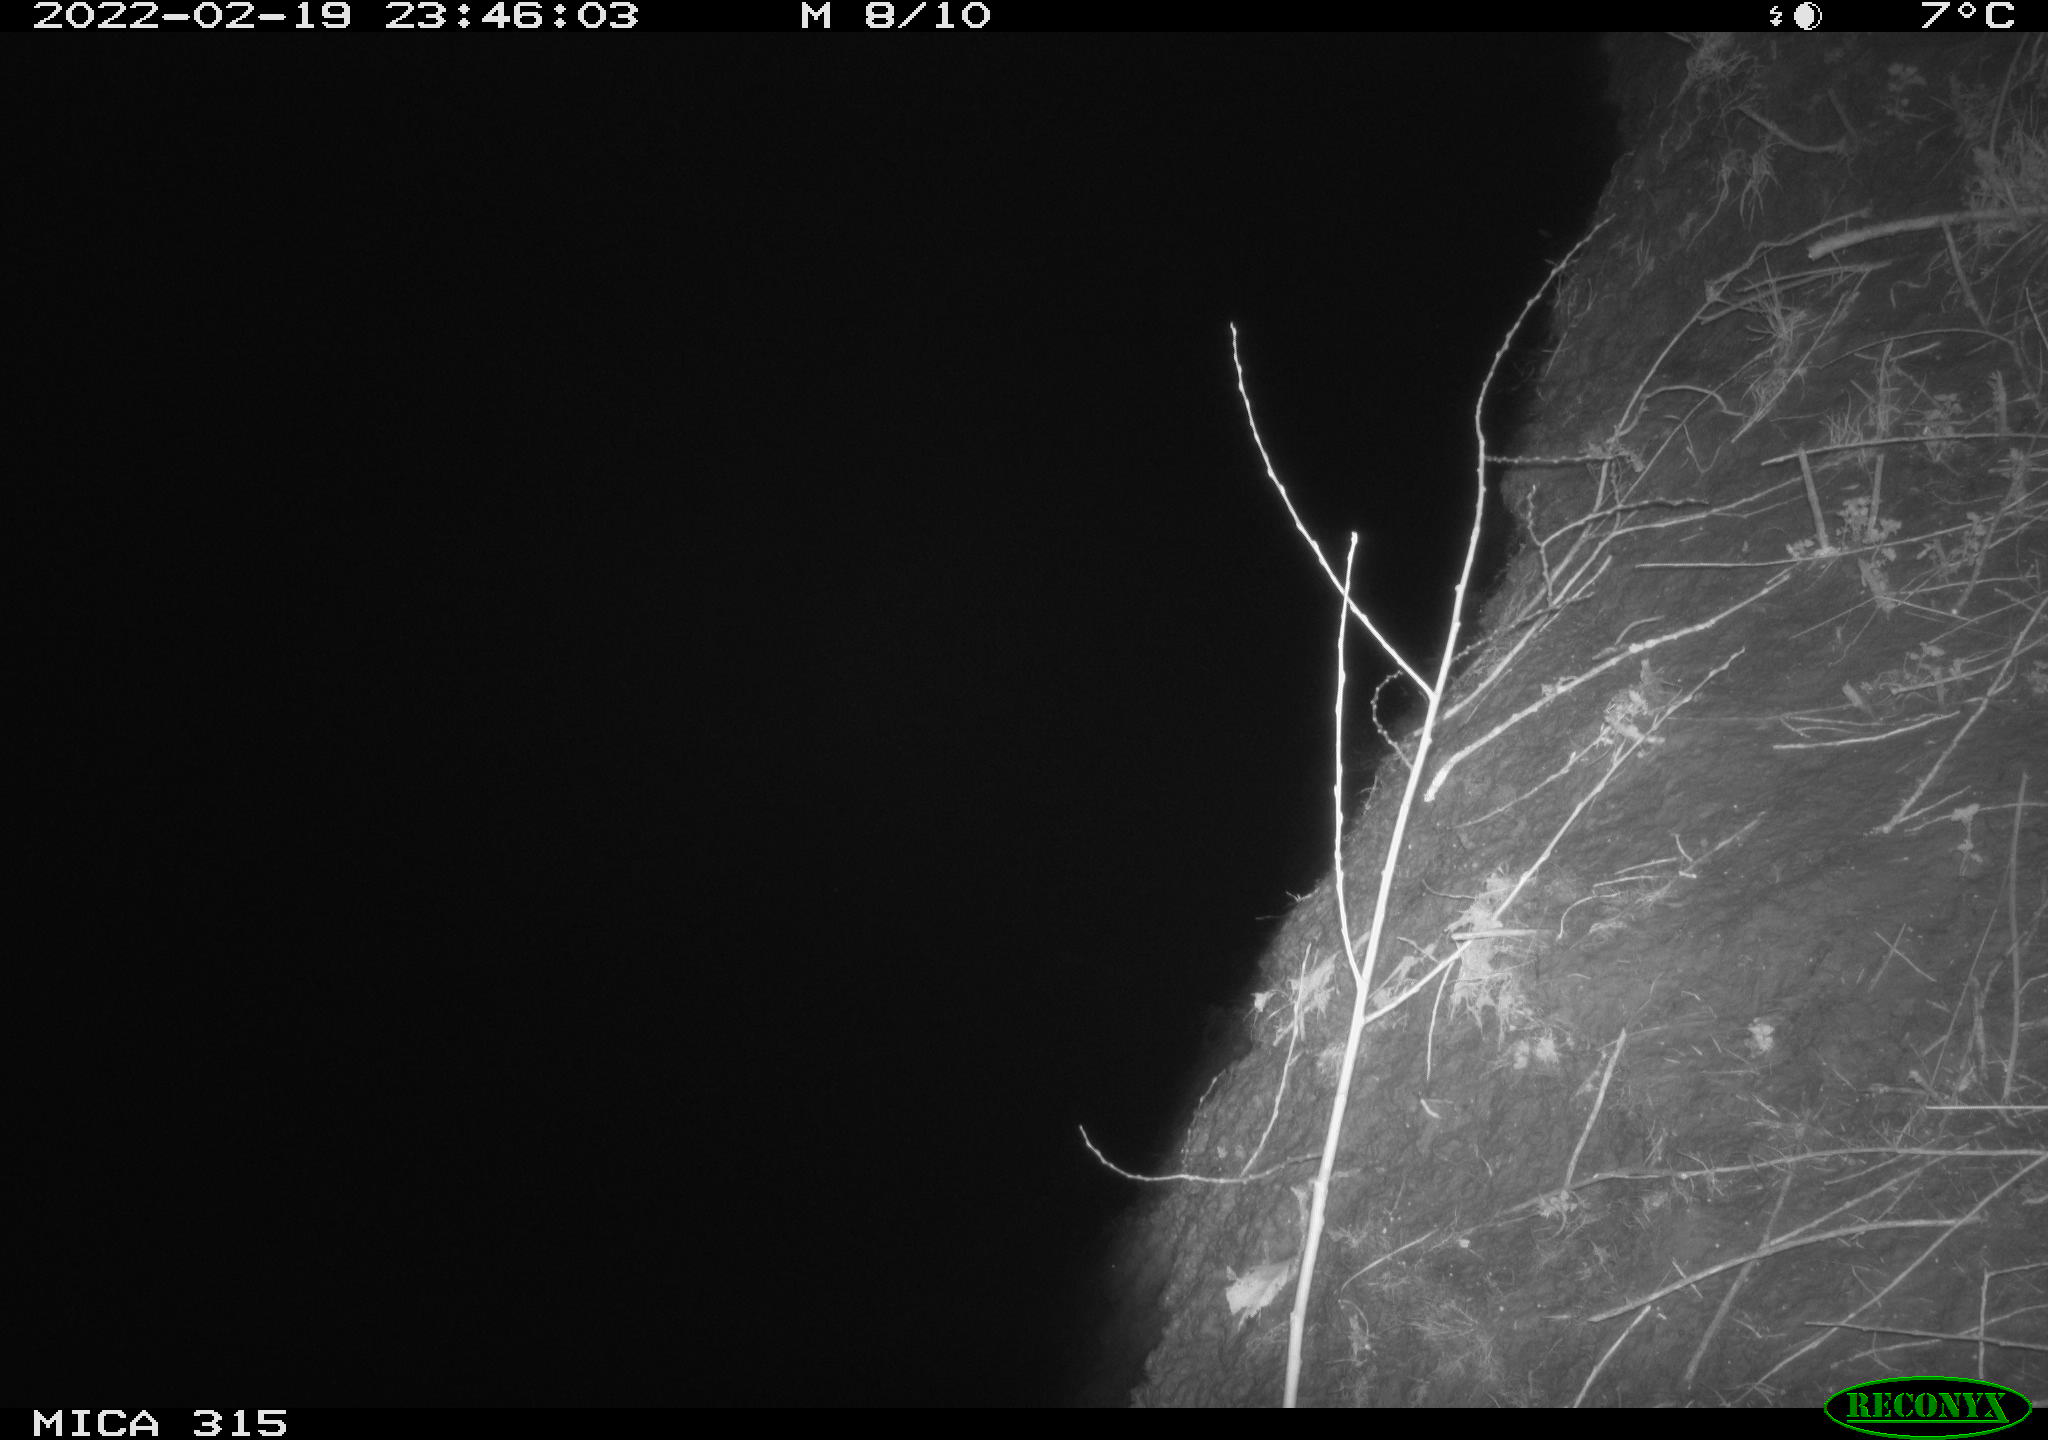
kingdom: Animalia
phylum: Chordata
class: Mammalia
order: Rodentia
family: Muridae
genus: Rattus
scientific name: Rattus norvegicus
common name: Brown rat
